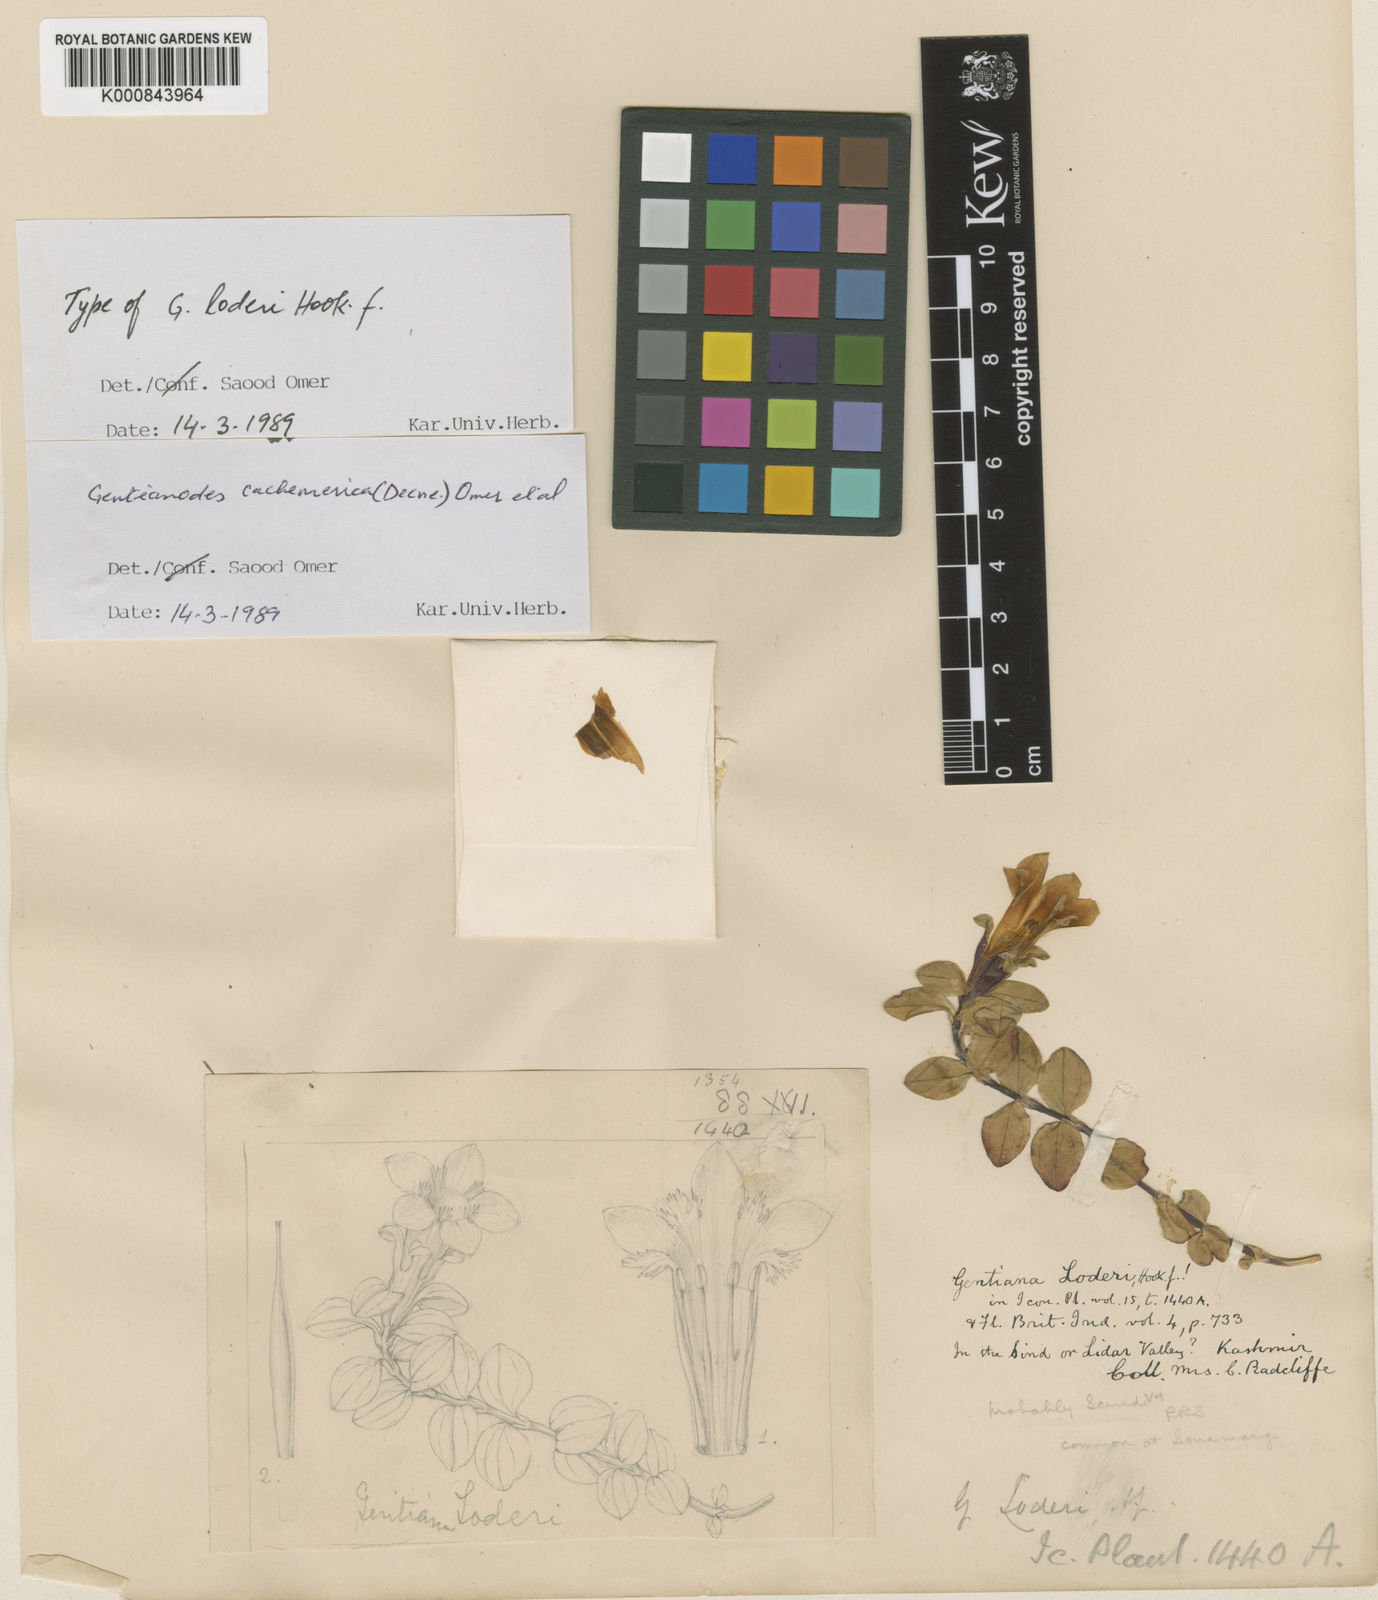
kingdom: Plantae
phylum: Tracheophyta
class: Magnoliopsida
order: Gentianales
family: Gentianaceae
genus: Gentiana
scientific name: Gentiana cachemirica
